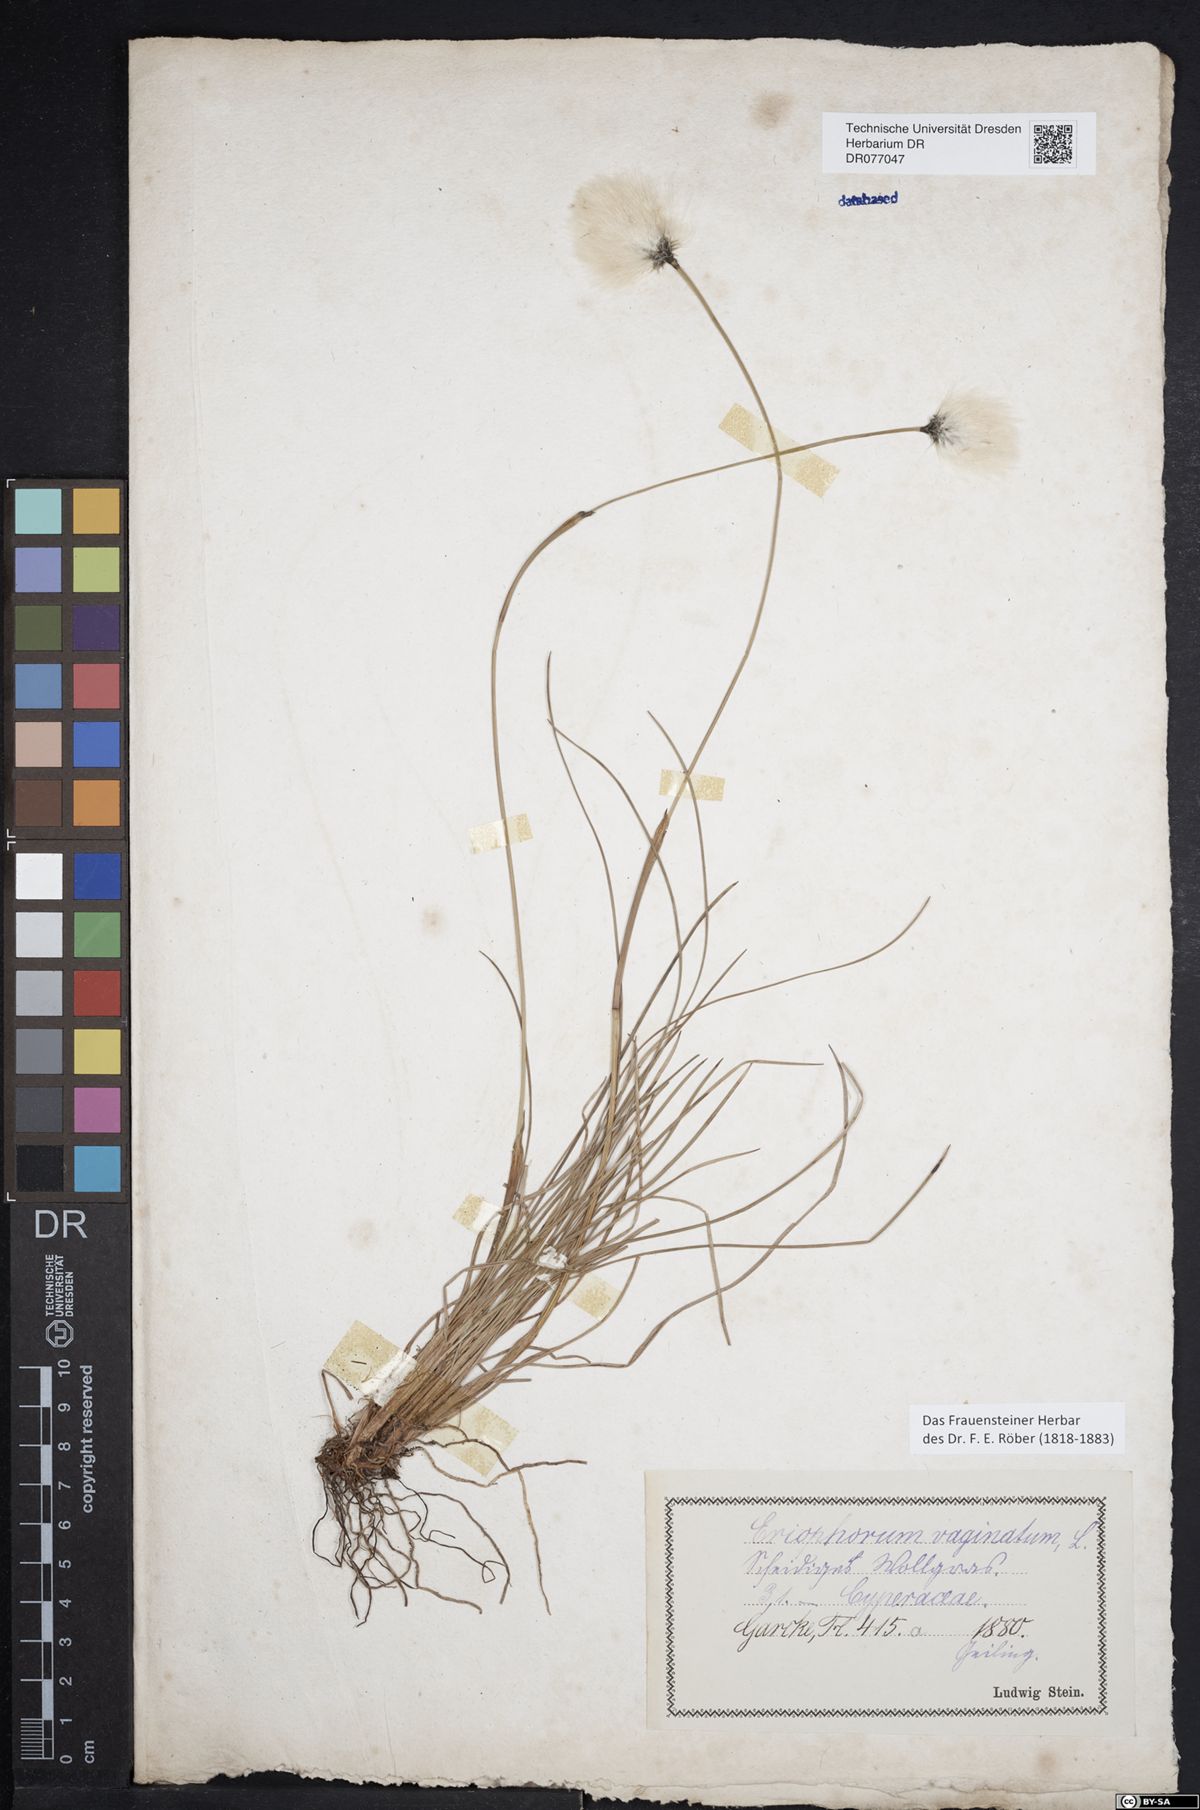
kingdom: Plantae
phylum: Tracheophyta
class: Liliopsida
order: Poales
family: Cyperaceae
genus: Eriophorum
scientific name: Eriophorum vaginatum
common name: Hare's-tail cottongrass
